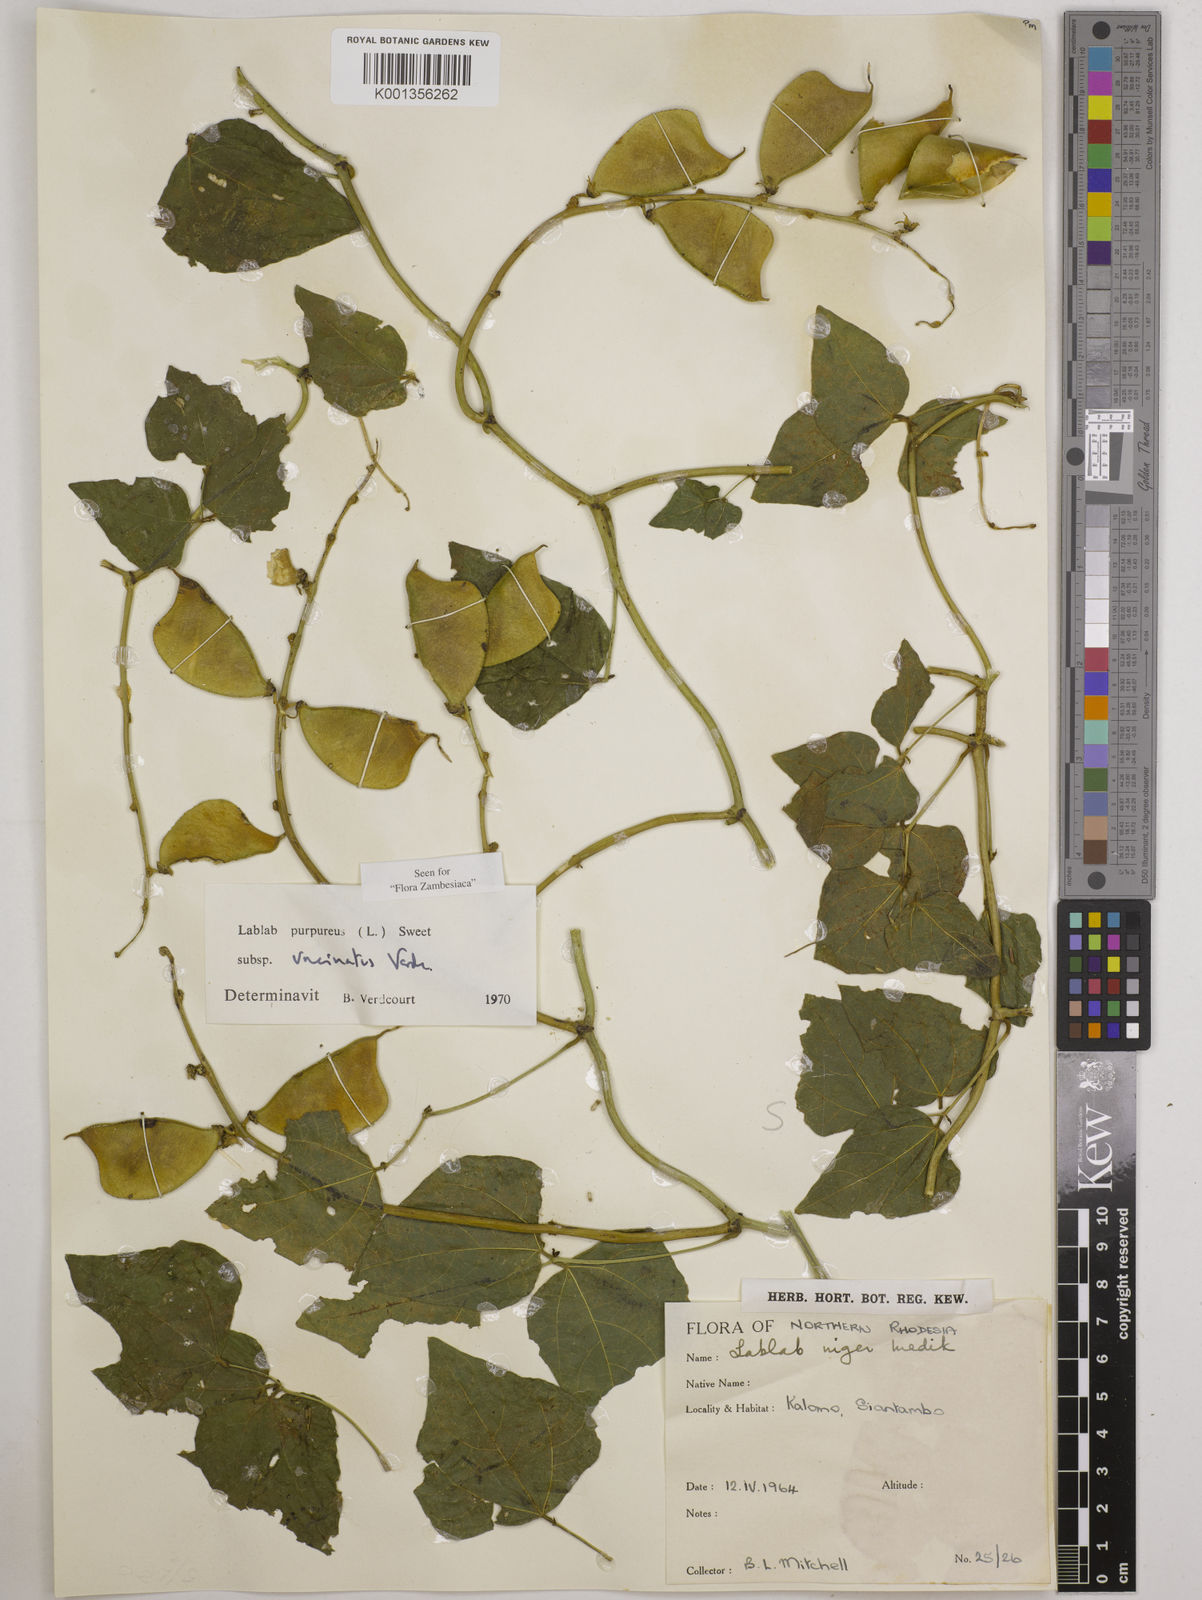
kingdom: Plantae
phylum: Tracheophyta
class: Magnoliopsida
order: Fabales
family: Fabaceae
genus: Lablab
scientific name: Lablab purpureus
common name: Lablab-bean
